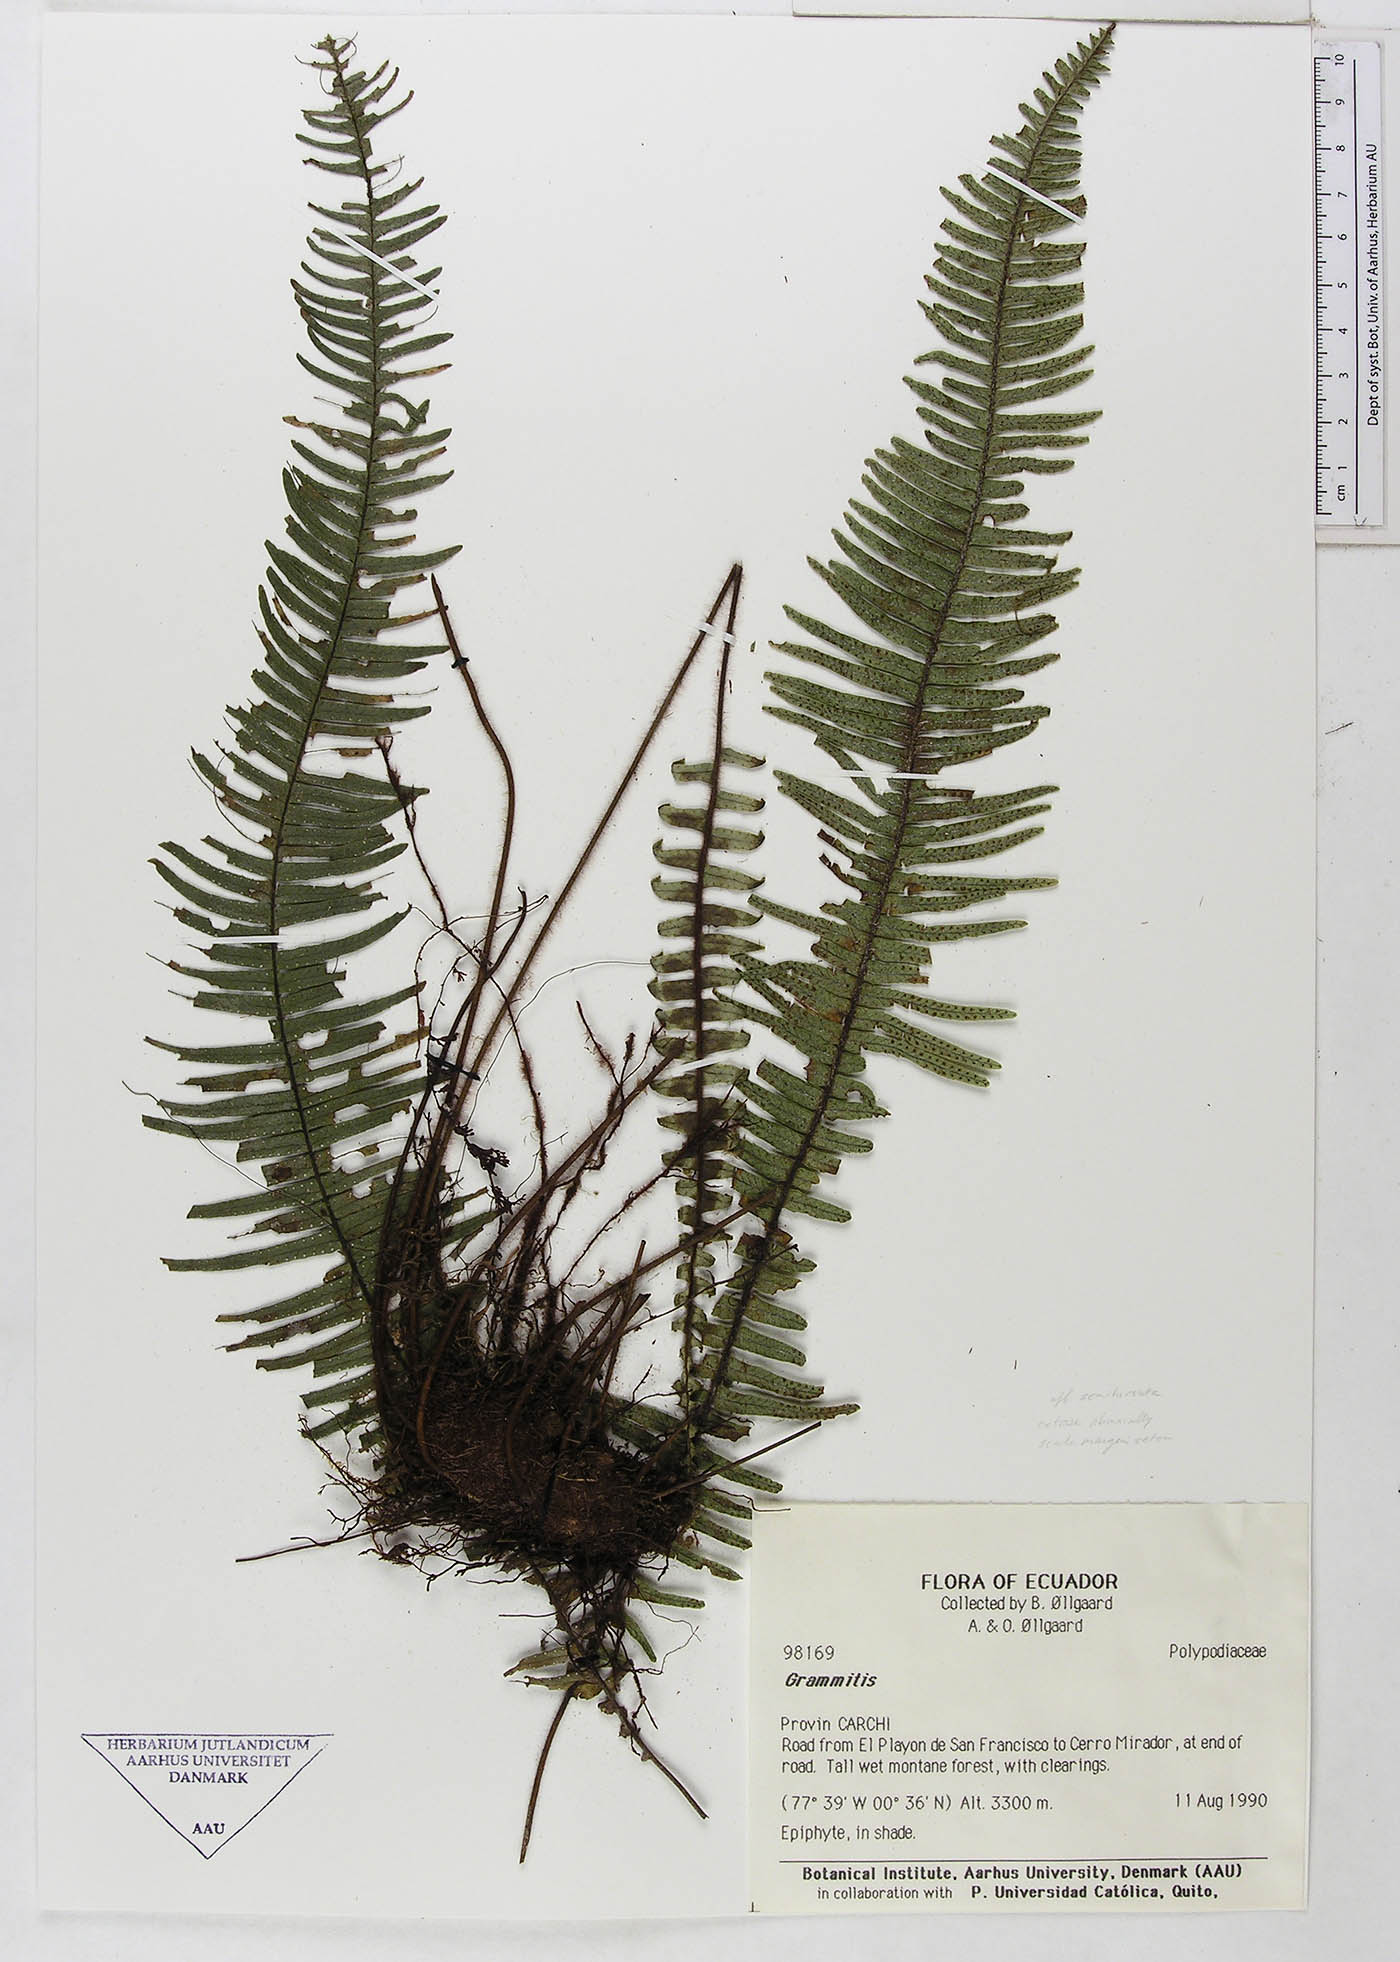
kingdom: Plantae
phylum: Tracheophyta
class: Polypodiopsida
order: Polypodiales
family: Polypodiaceae
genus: Grammitis
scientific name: Grammitis
